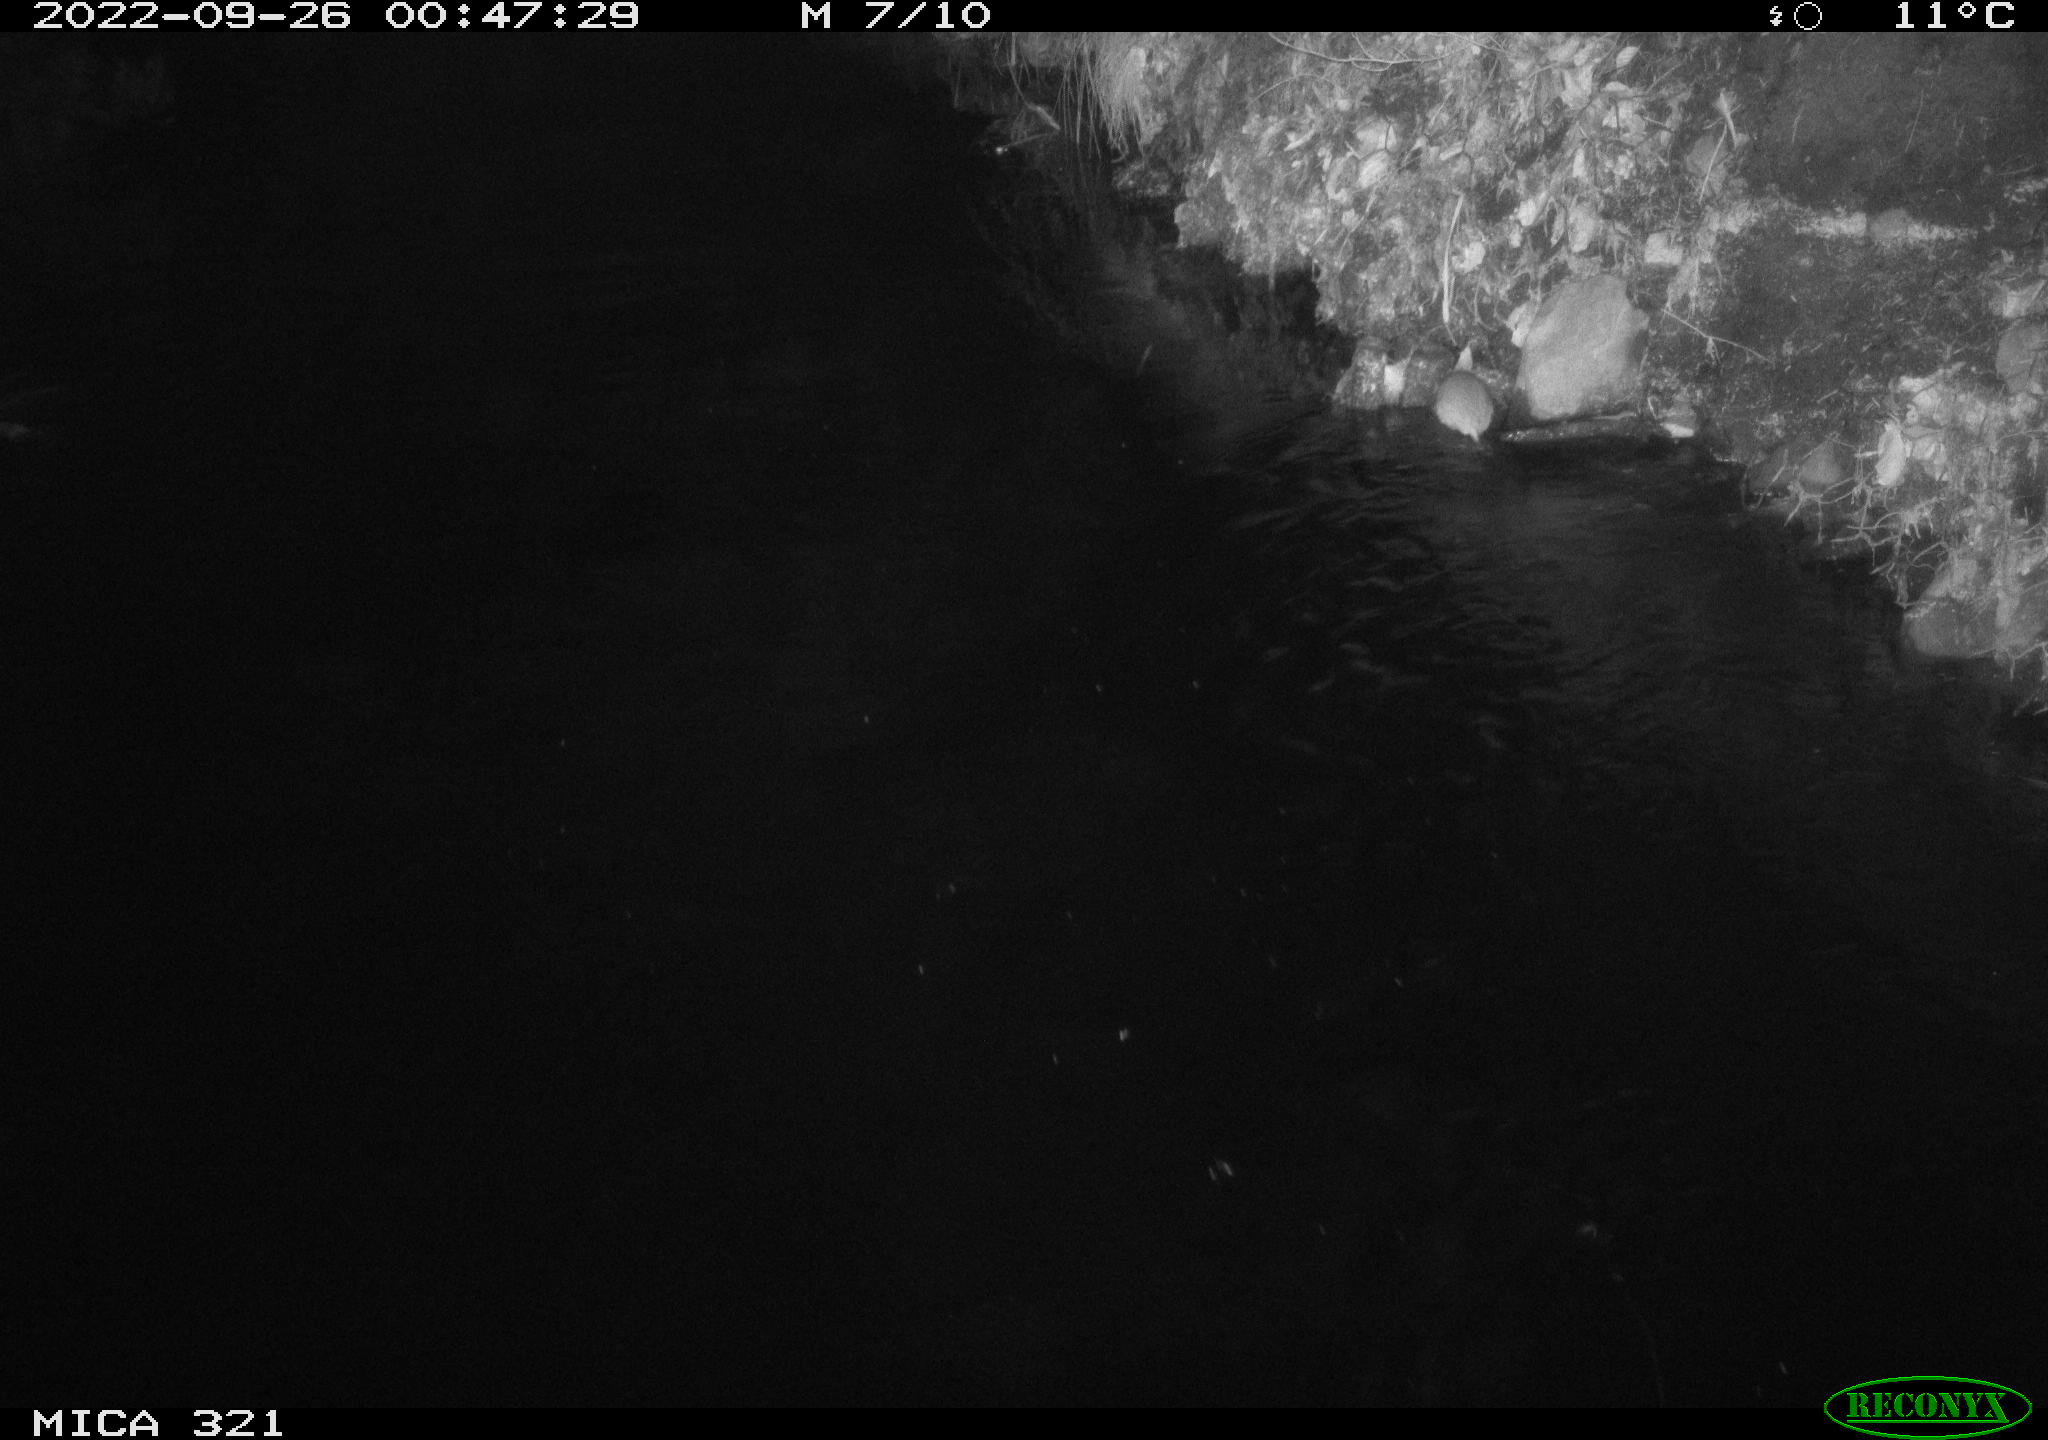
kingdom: Animalia
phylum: Chordata
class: Mammalia
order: Rodentia
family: Muridae
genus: Rattus
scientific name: Rattus norvegicus
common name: Brown rat
